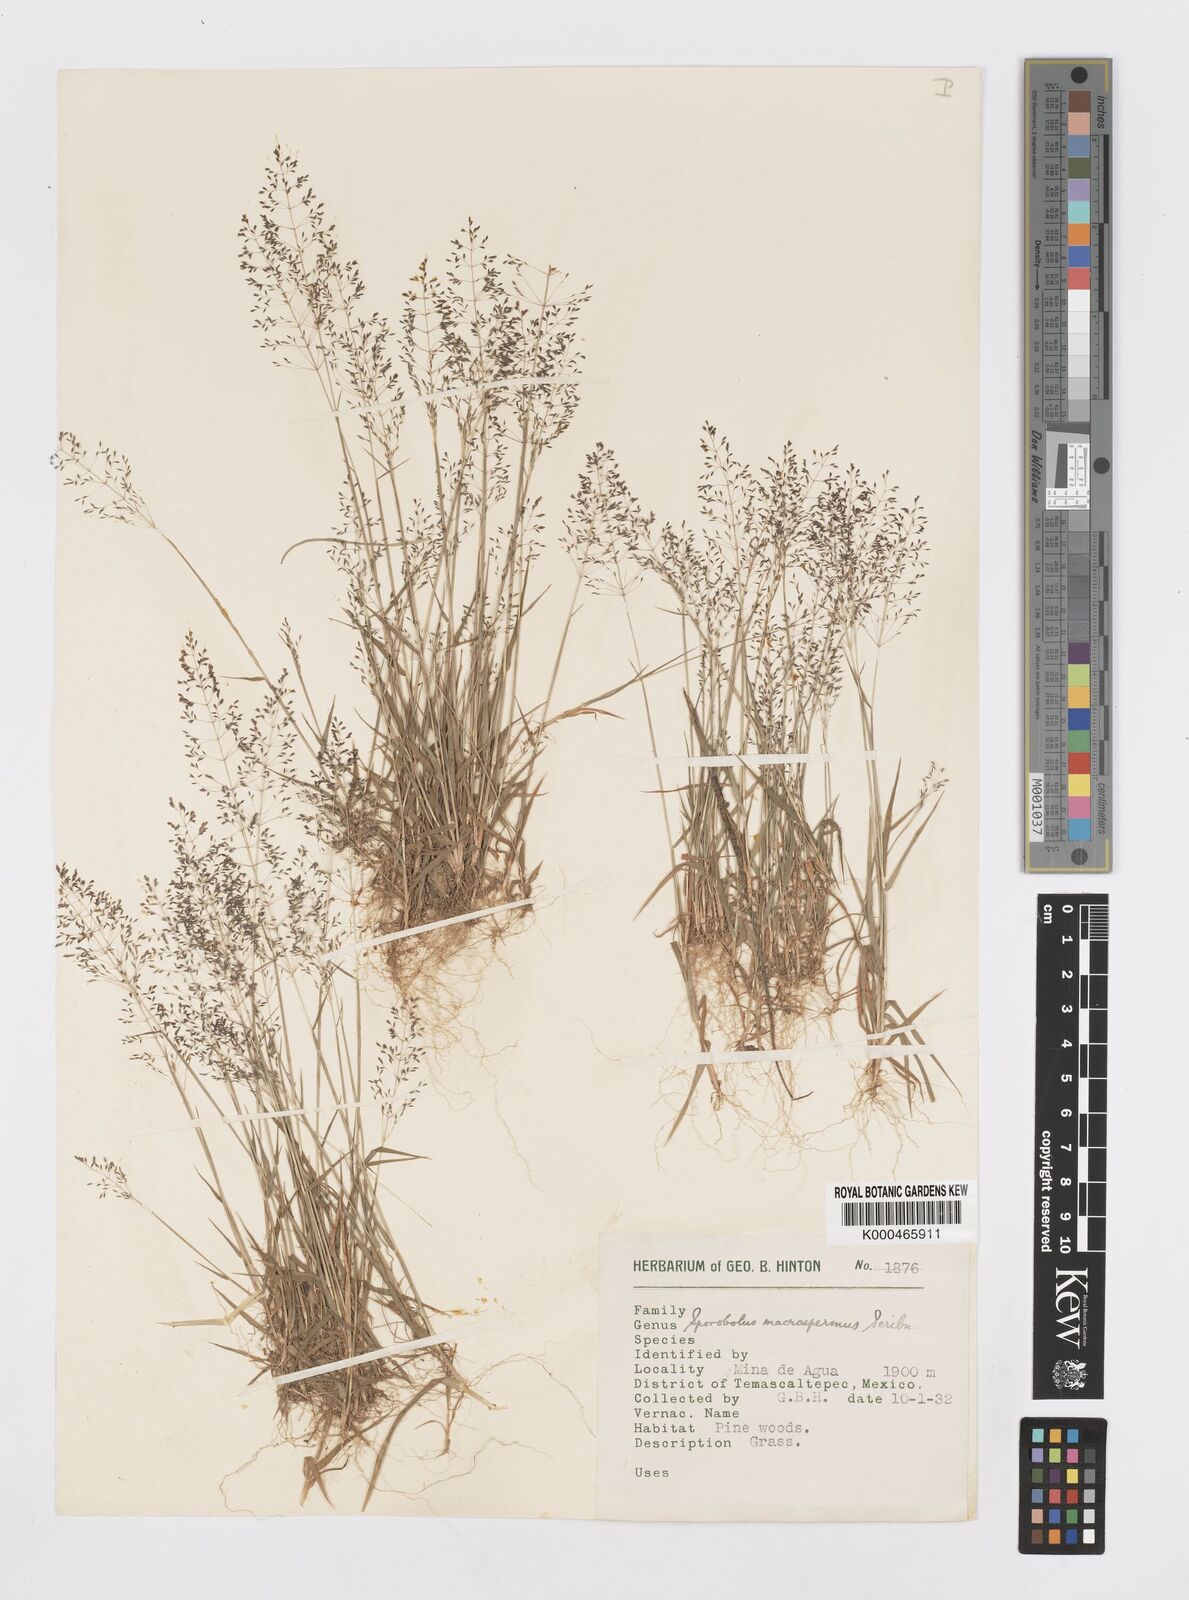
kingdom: Plantae
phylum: Tracheophyta
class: Liliopsida
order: Poales
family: Poaceae
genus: Sporobolus
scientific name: Sporobolus paniculatus
